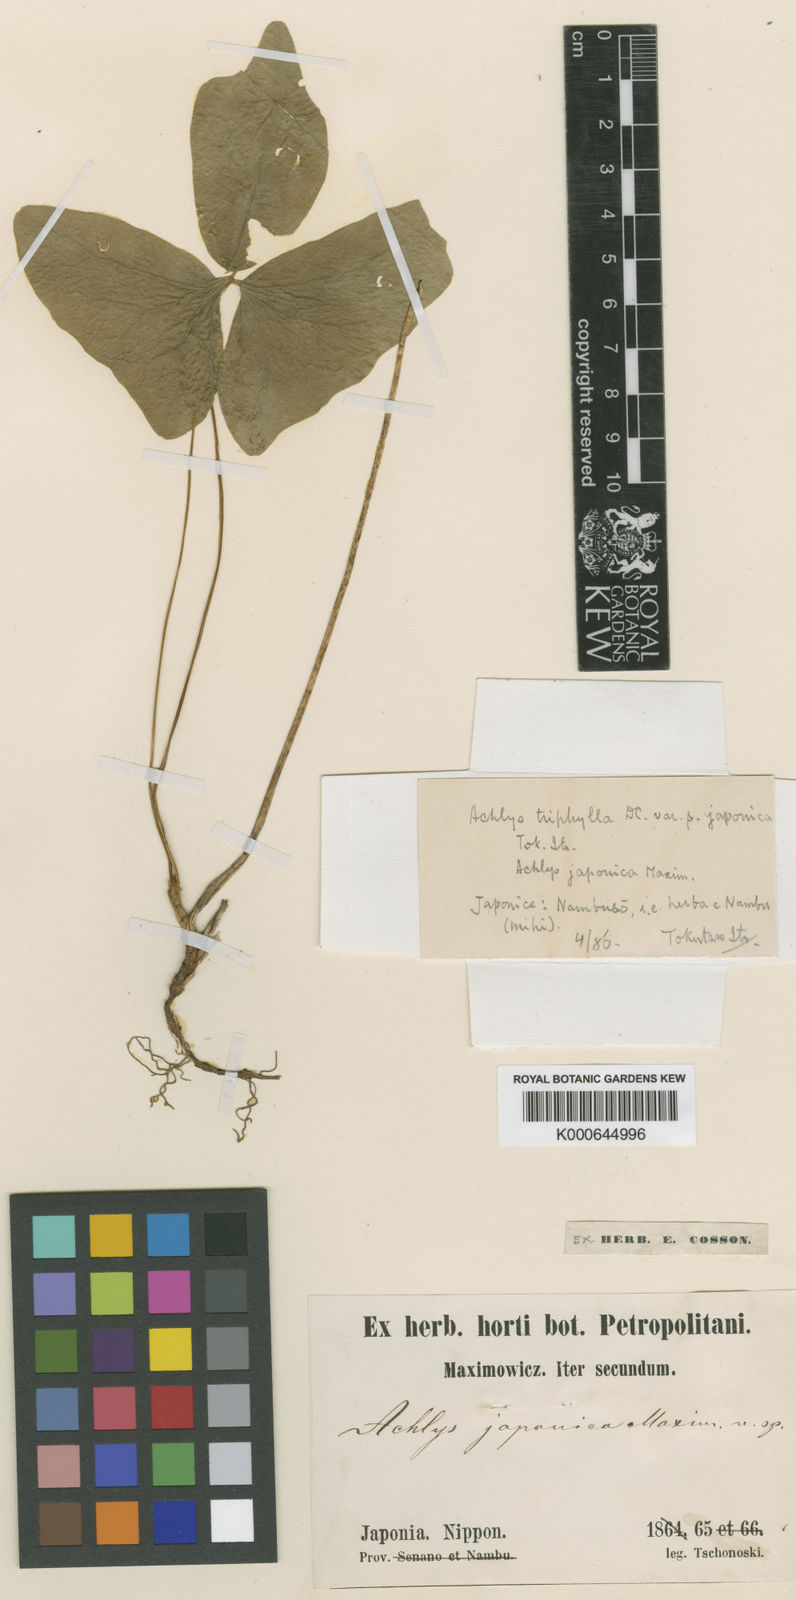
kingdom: Plantae
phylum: Tracheophyta
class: Magnoliopsida
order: Ranunculales
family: Berberidaceae
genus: Achlys
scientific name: Achlys triphylla
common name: Vanilla-leaf
